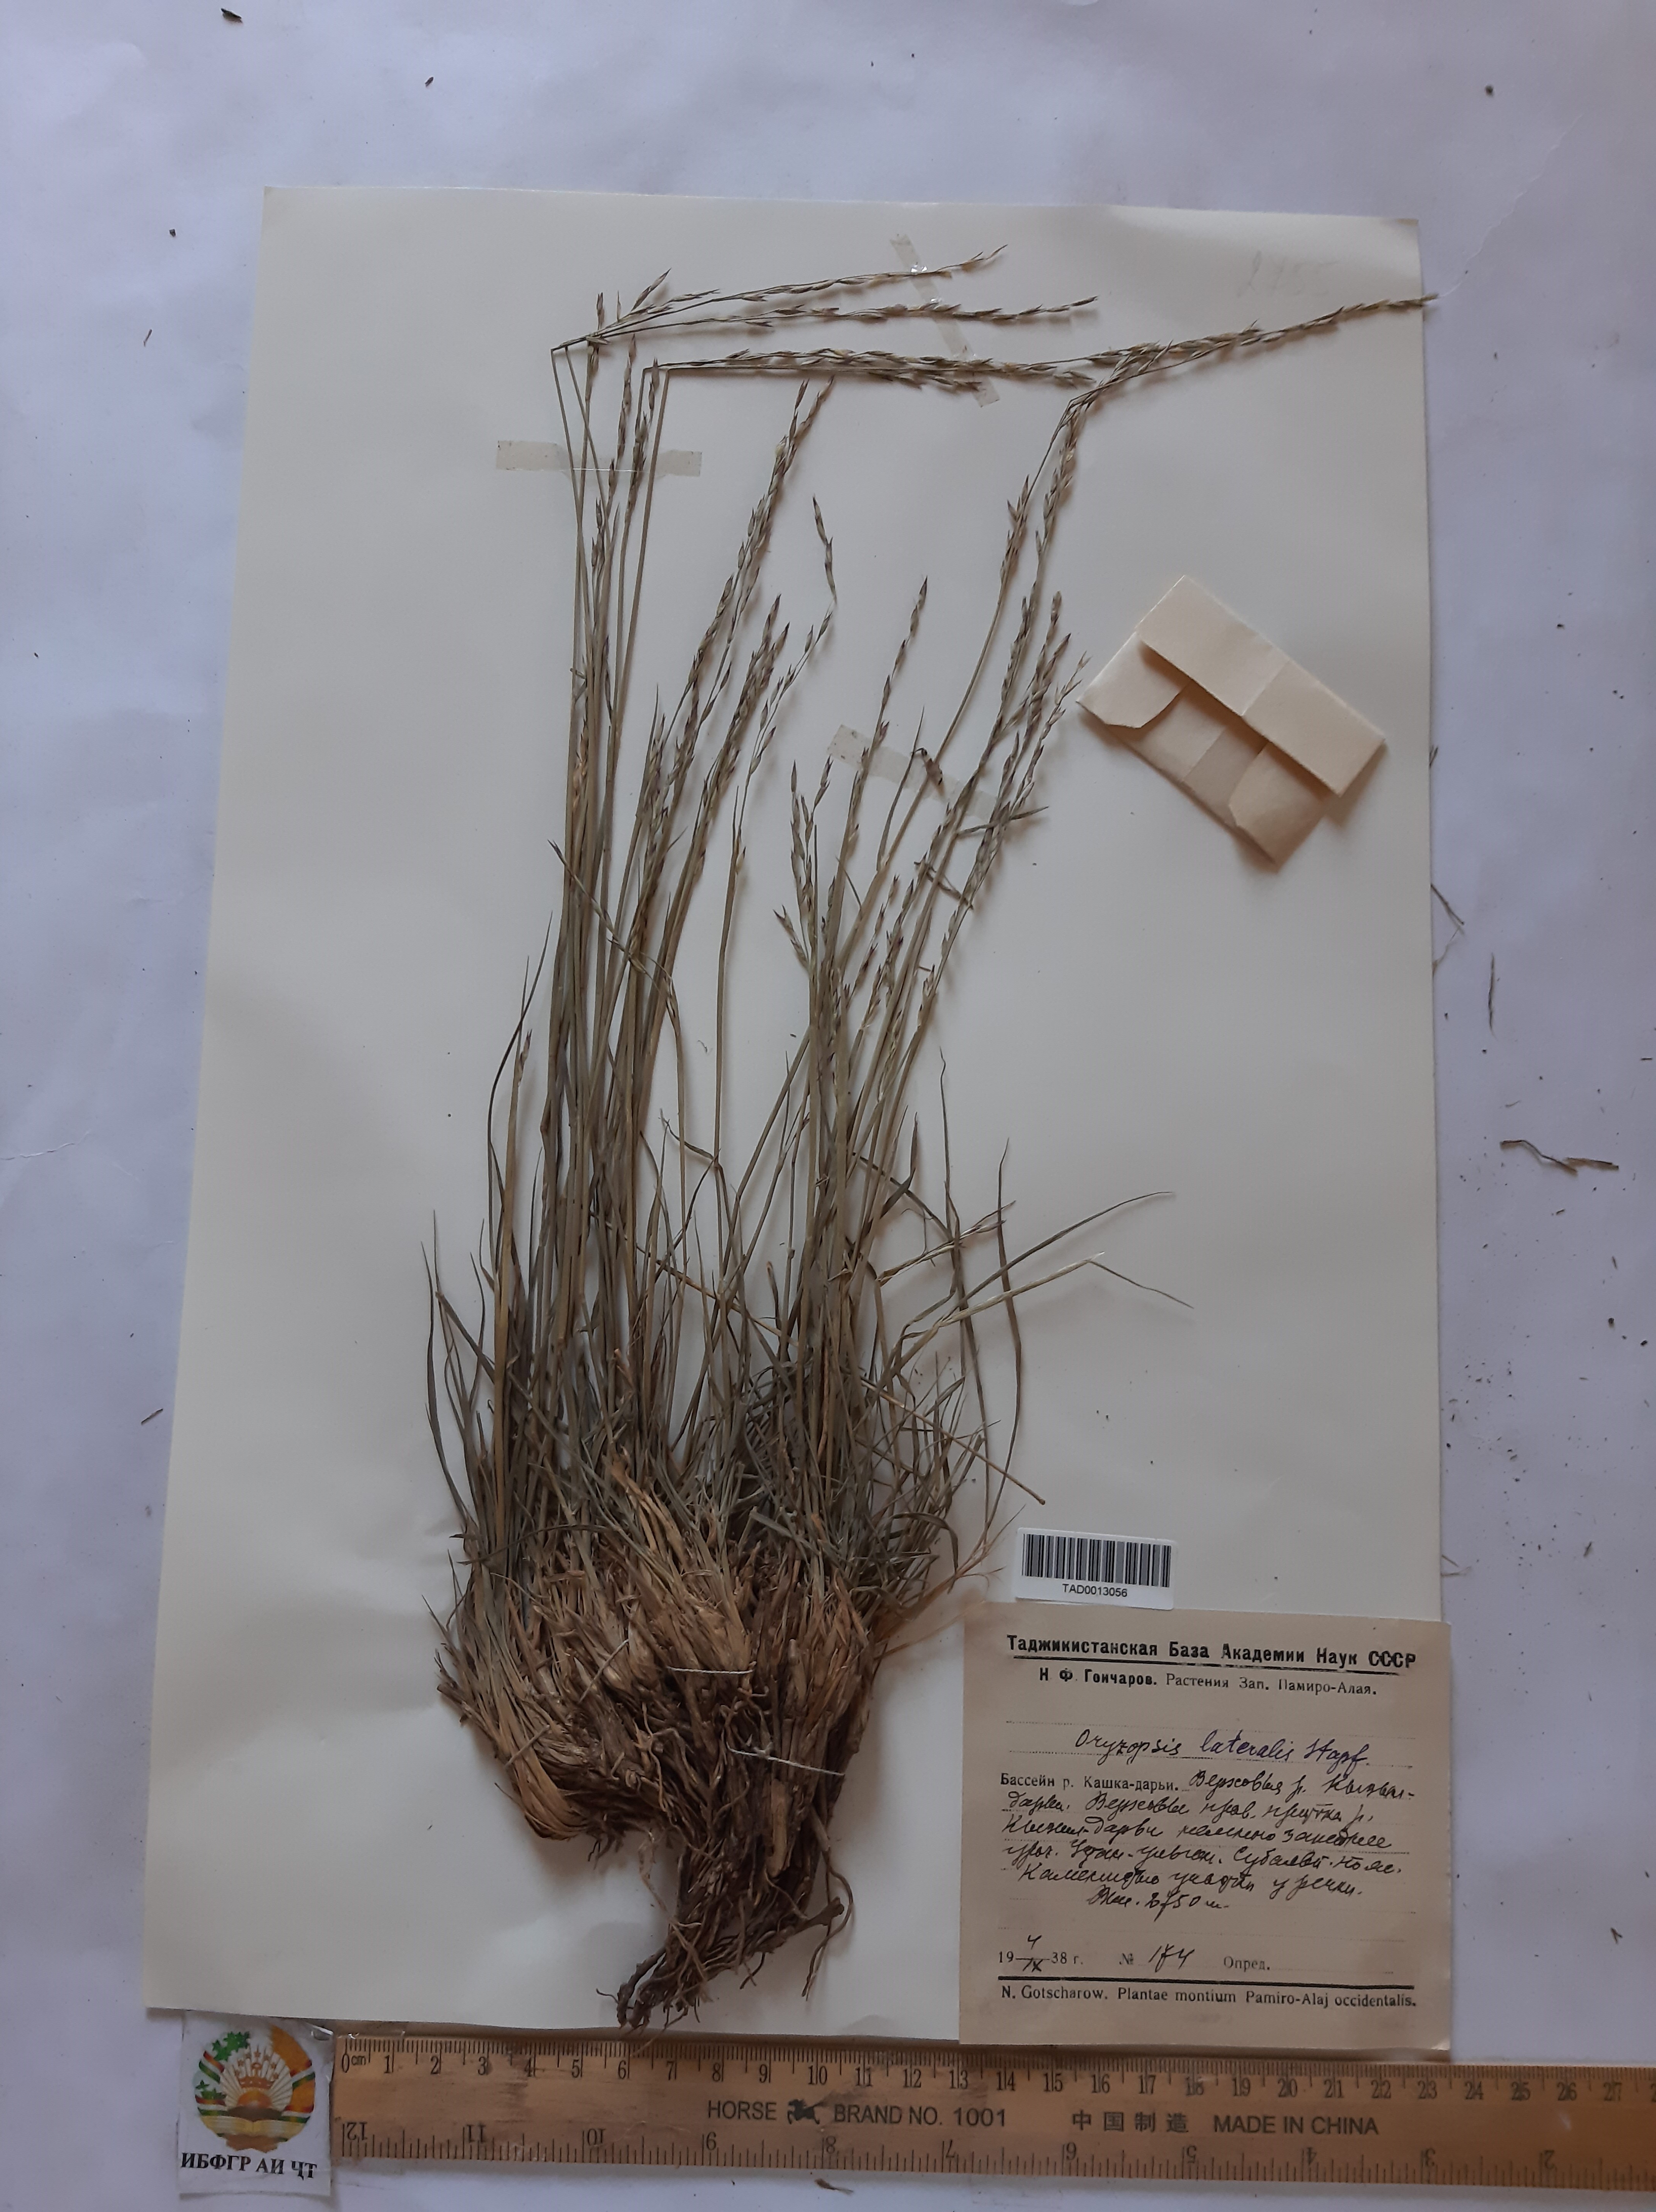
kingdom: Plantae
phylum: Tracheophyta
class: Liliopsida
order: Poales
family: Poaceae
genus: Piptatherum
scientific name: Piptatherum laterale
